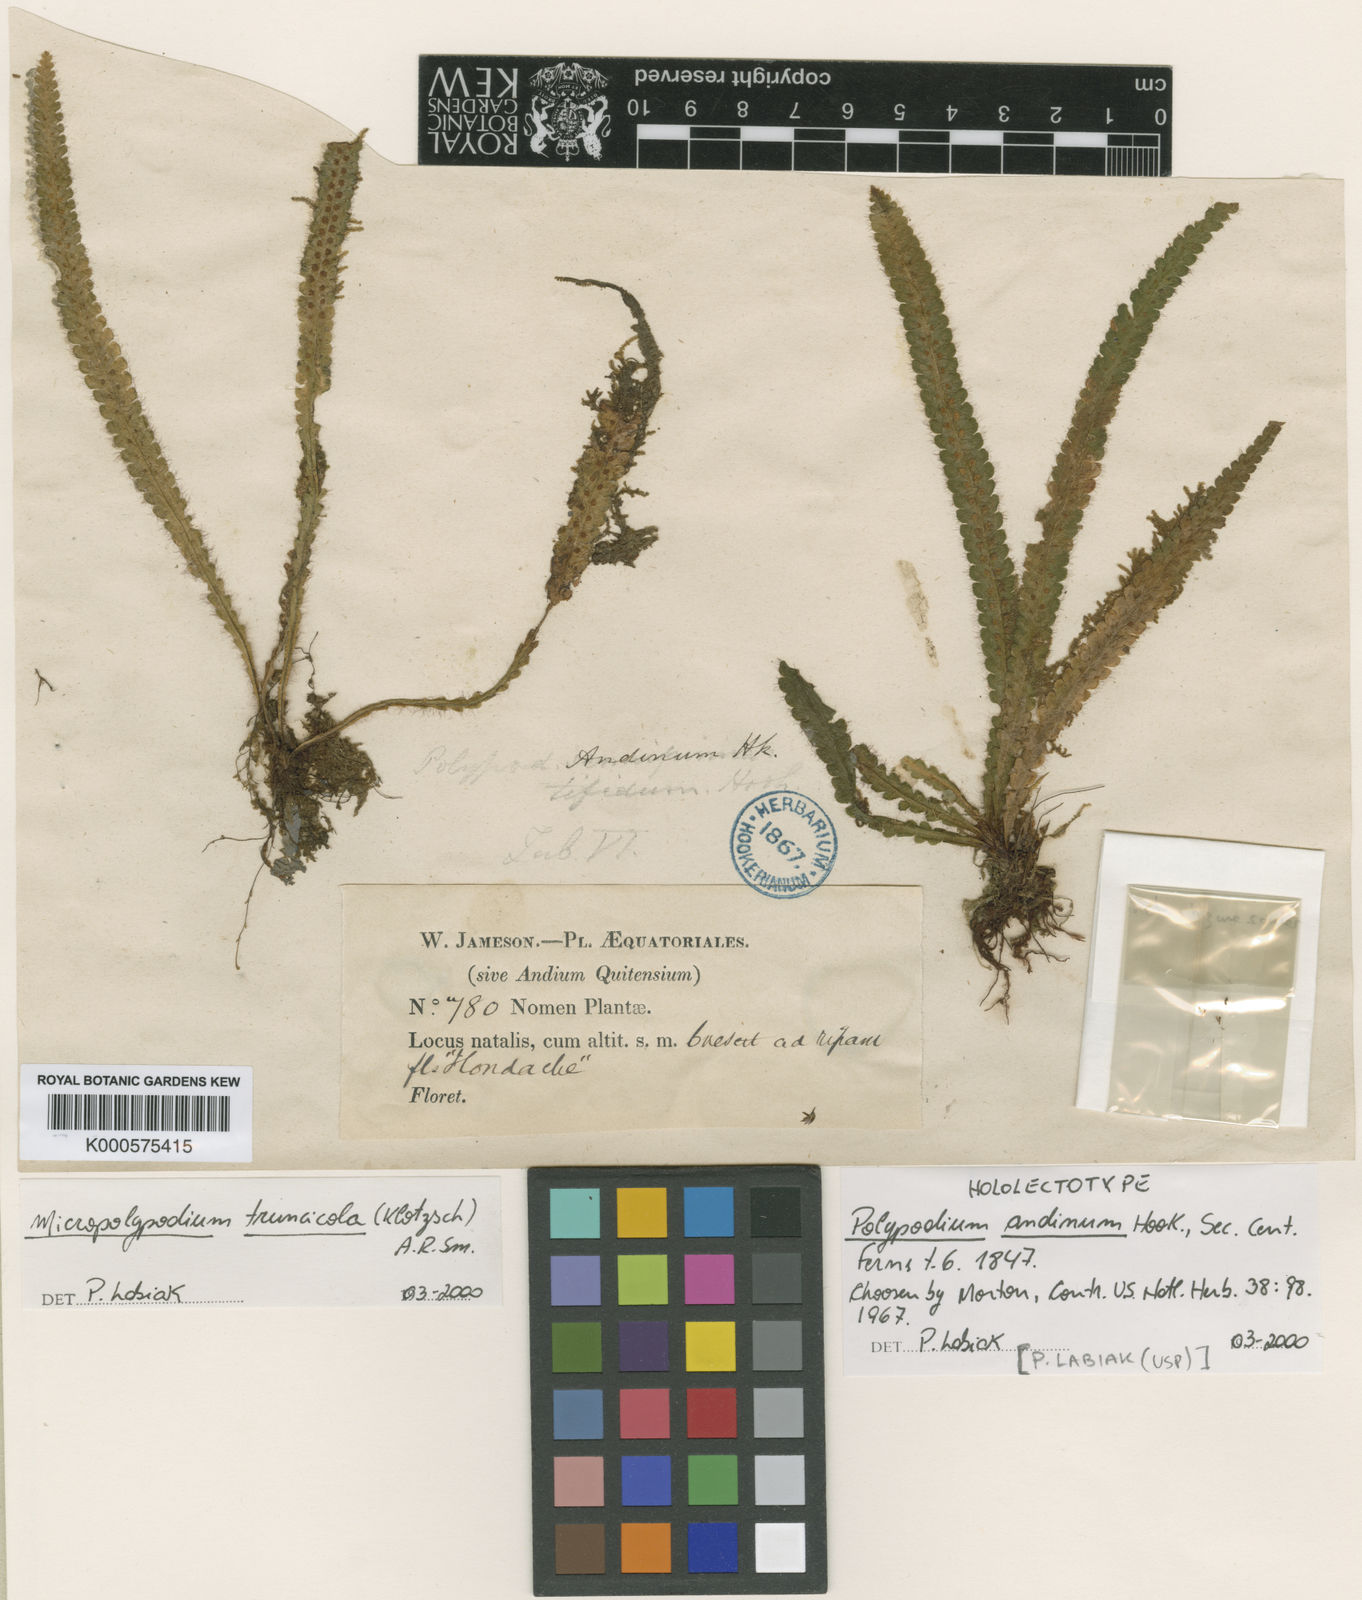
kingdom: Plantae
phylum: Tracheophyta
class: Polypodiopsida
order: Polypodiales
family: Polypodiaceae
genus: Moranopteris
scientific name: Moranopteris truncicola
